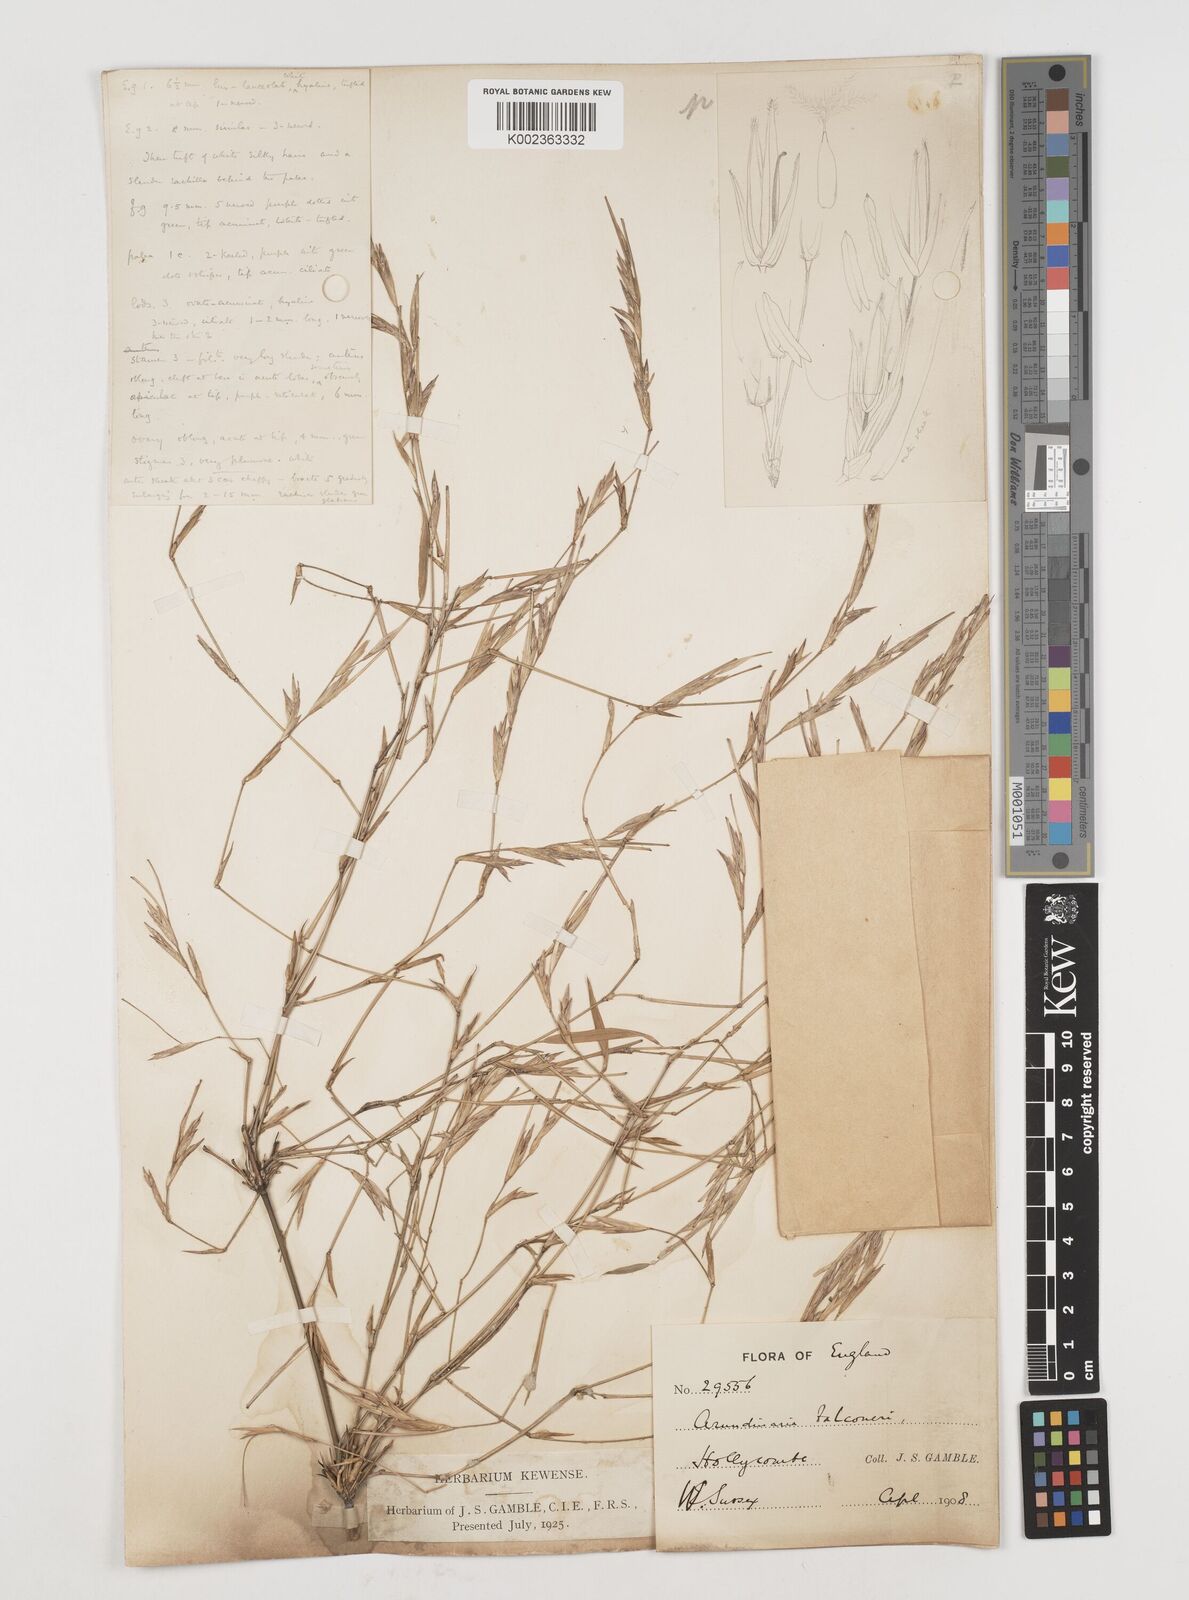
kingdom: Plantae
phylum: Tracheophyta
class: Liliopsida
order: Poales
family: Poaceae
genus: Himalayacalamus
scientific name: Himalayacalamus falconeri
